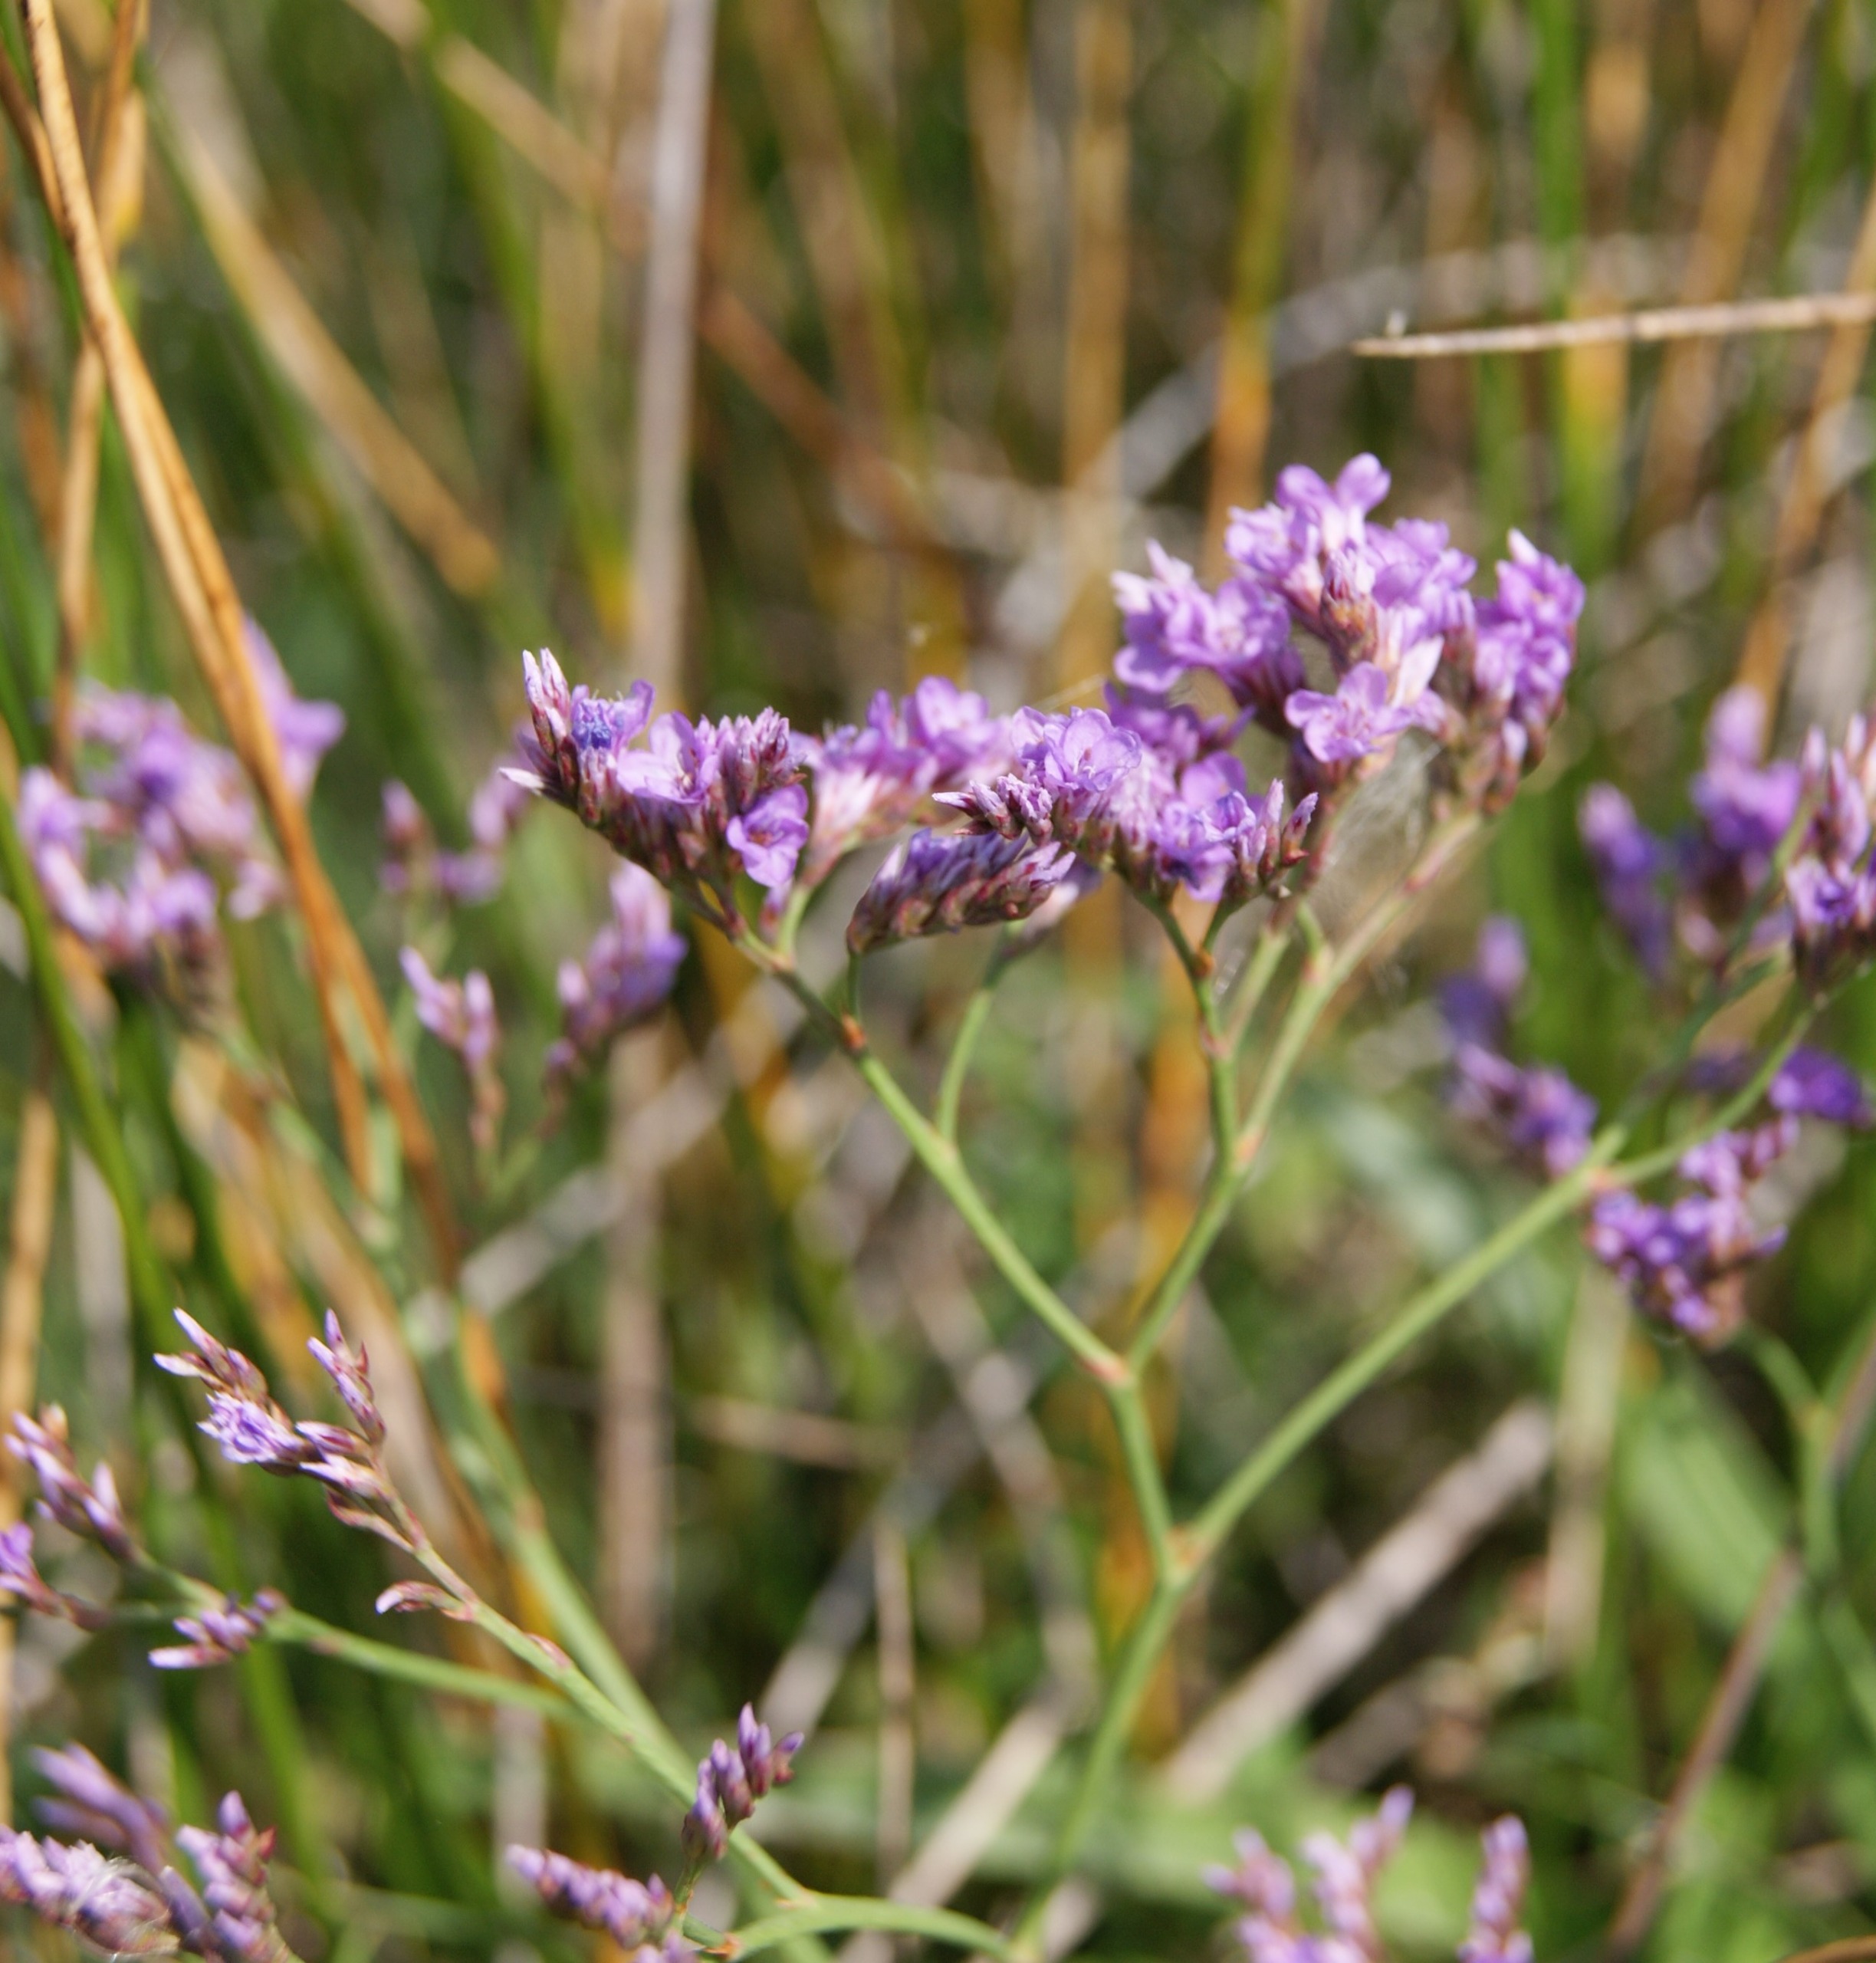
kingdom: Plantae
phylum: Tracheophyta
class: Magnoliopsida
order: Caryophyllales
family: Plumbaginaceae
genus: Limonium
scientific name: Limonium vulgare
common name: Tætblomstret hindebæger
